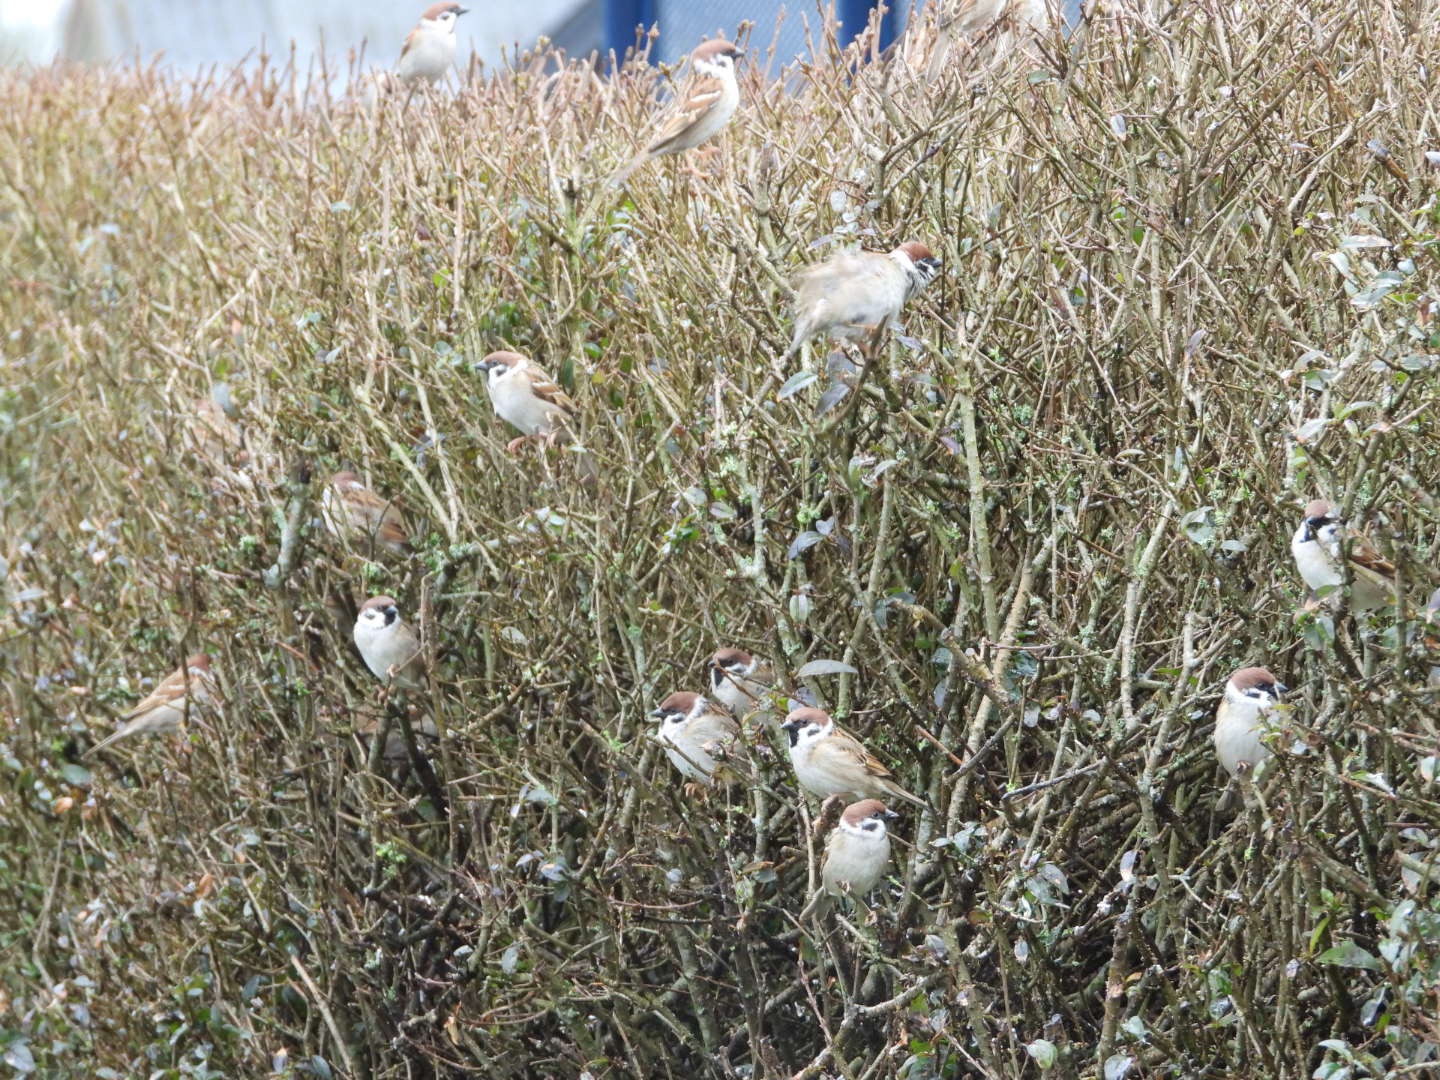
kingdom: Animalia
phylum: Chordata
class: Aves
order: Passeriformes
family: Passeridae
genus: Passer
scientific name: Passer montanus
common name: Skovspurv
